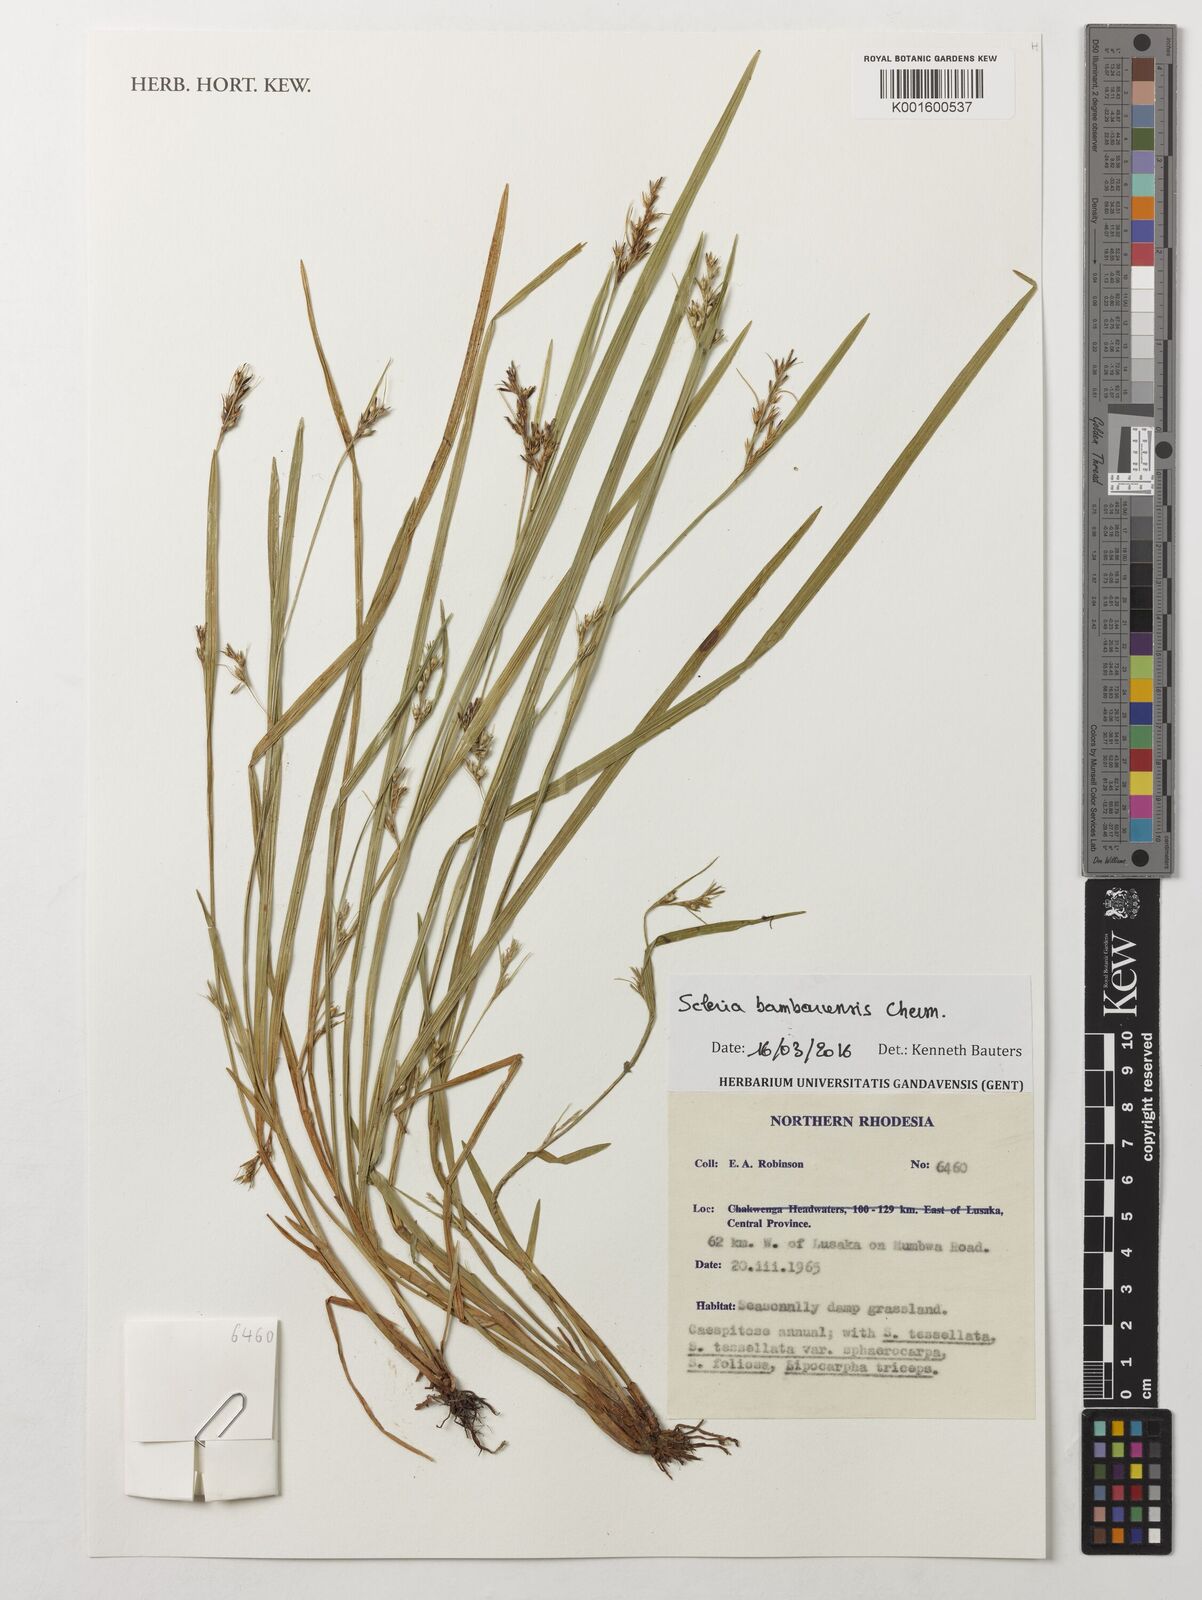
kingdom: Plantae
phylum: Tracheophyta
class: Liliopsida
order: Poales
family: Cyperaceae
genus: Scleria
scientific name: Scleria bambariensis
